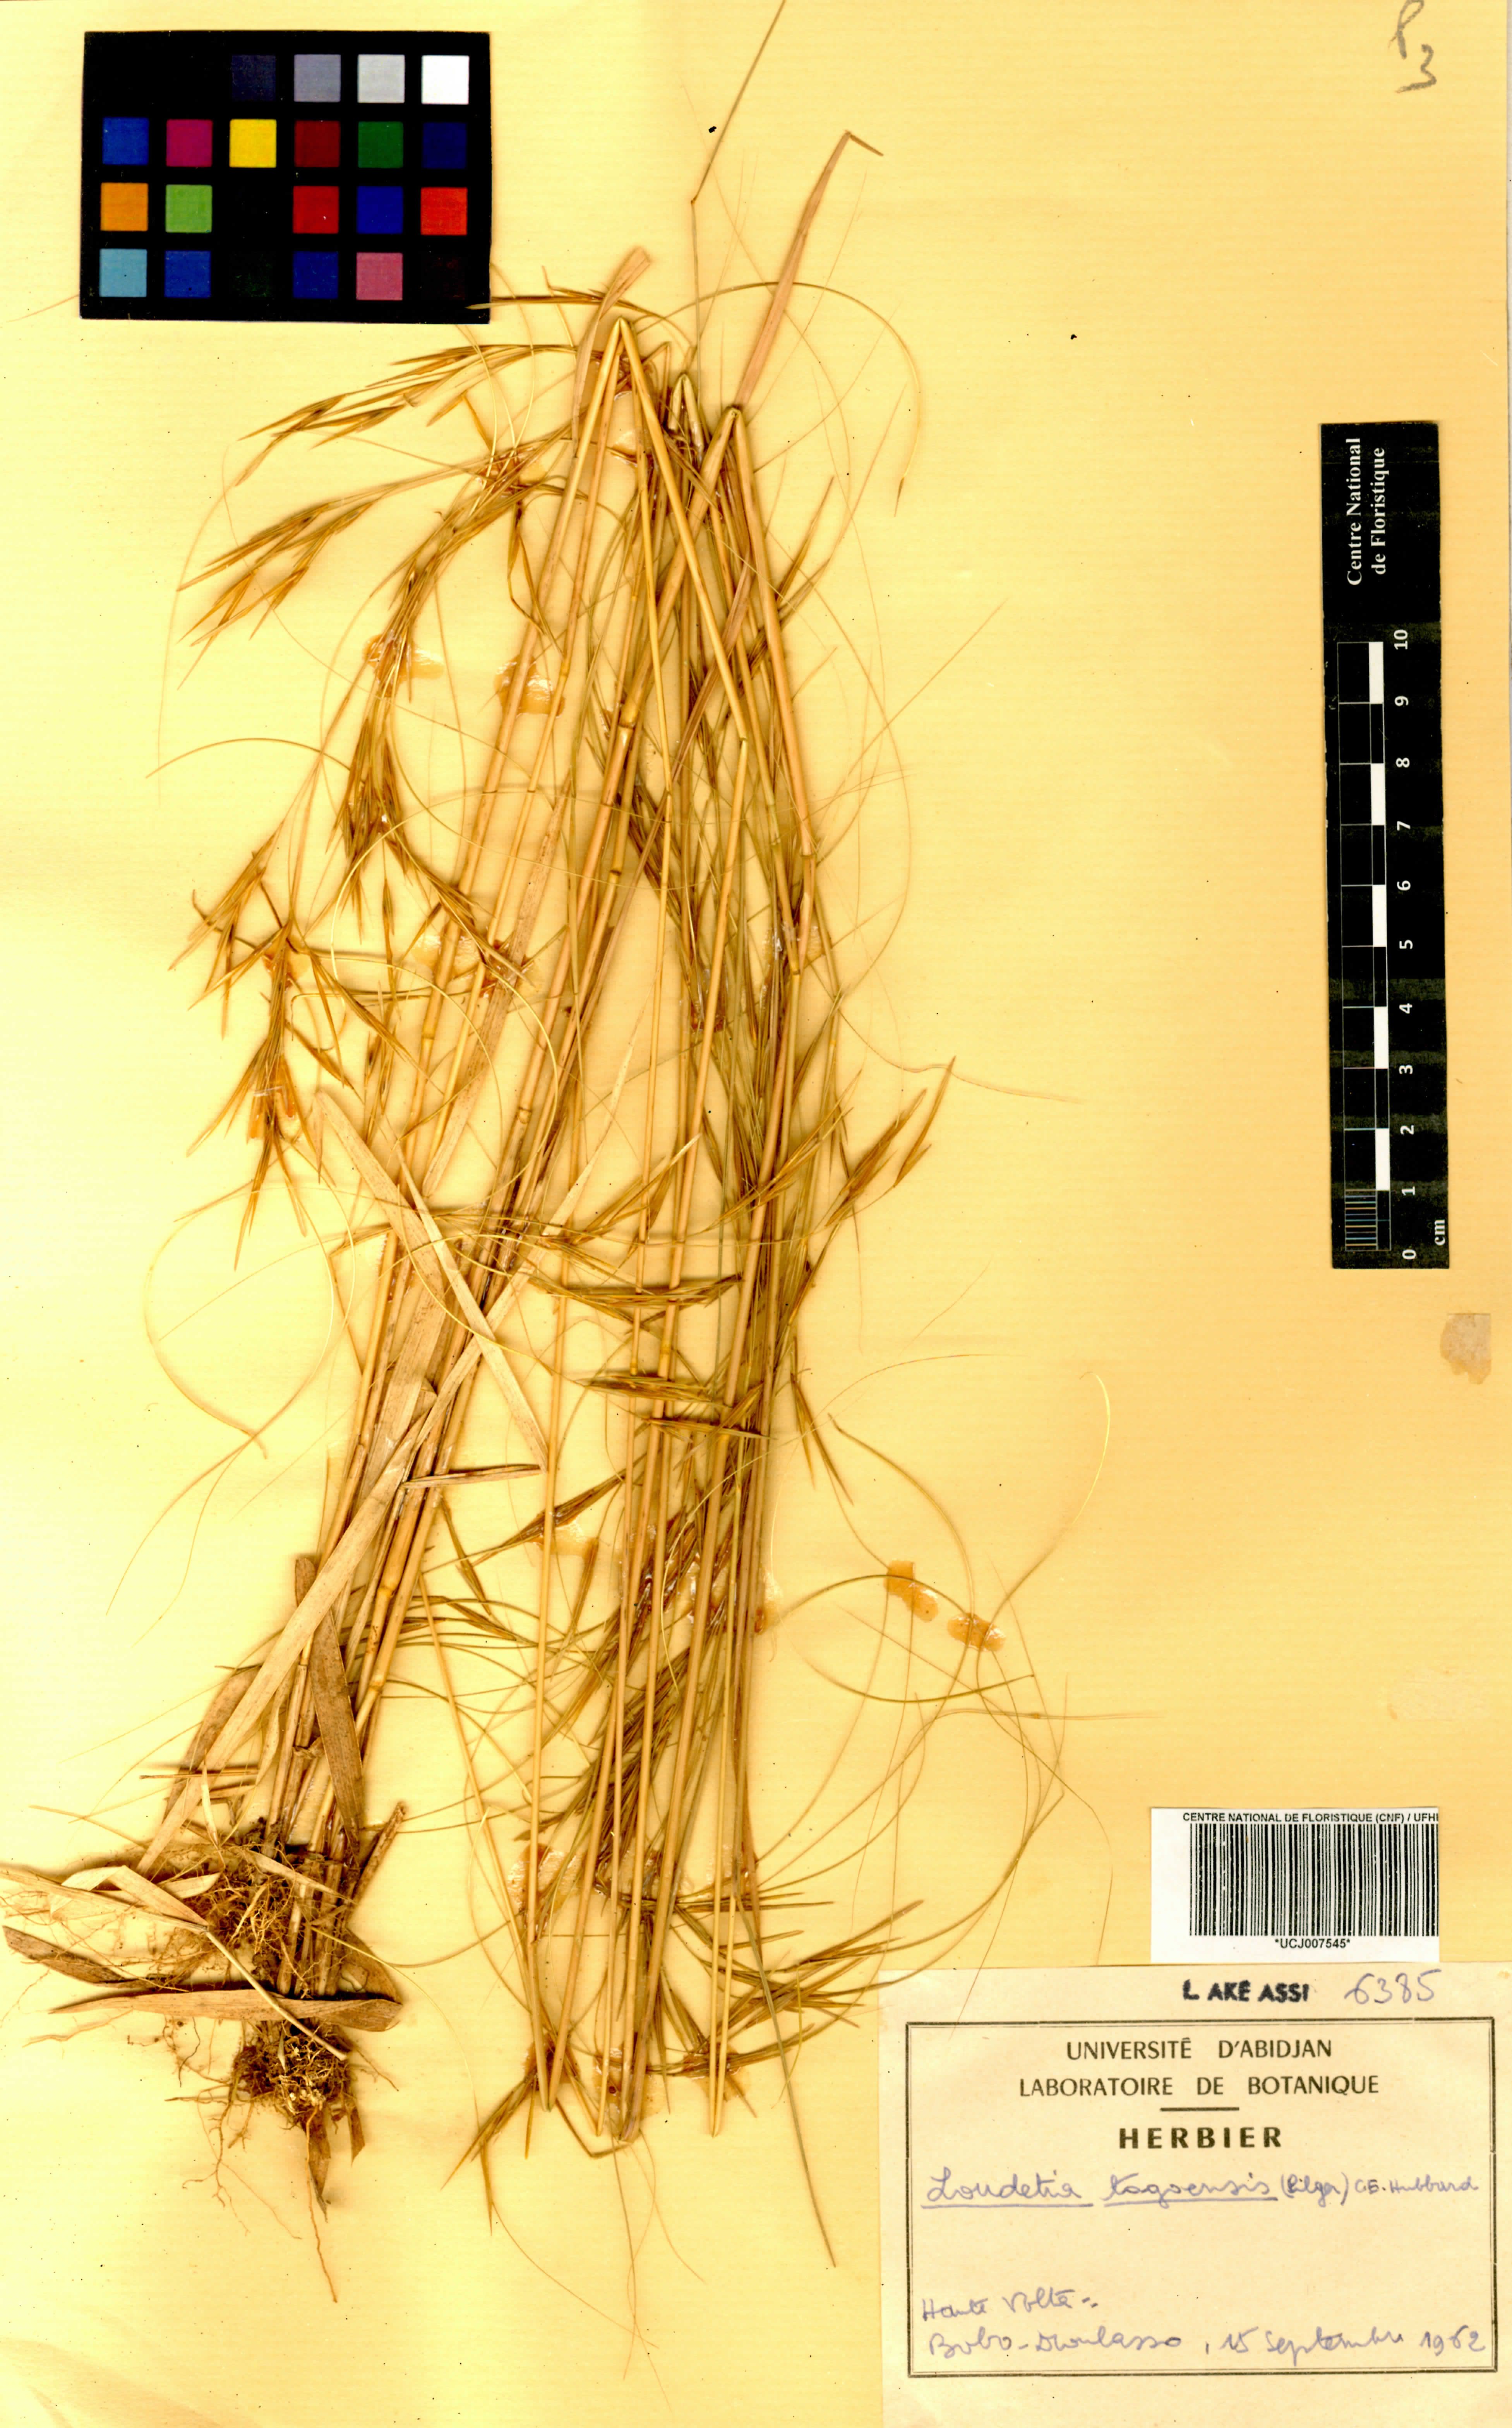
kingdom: Plantae
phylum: Tracheophyta
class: Liliopsida
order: Poales
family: Poaceae
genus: Loudetia
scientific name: Loudetia togoensis
